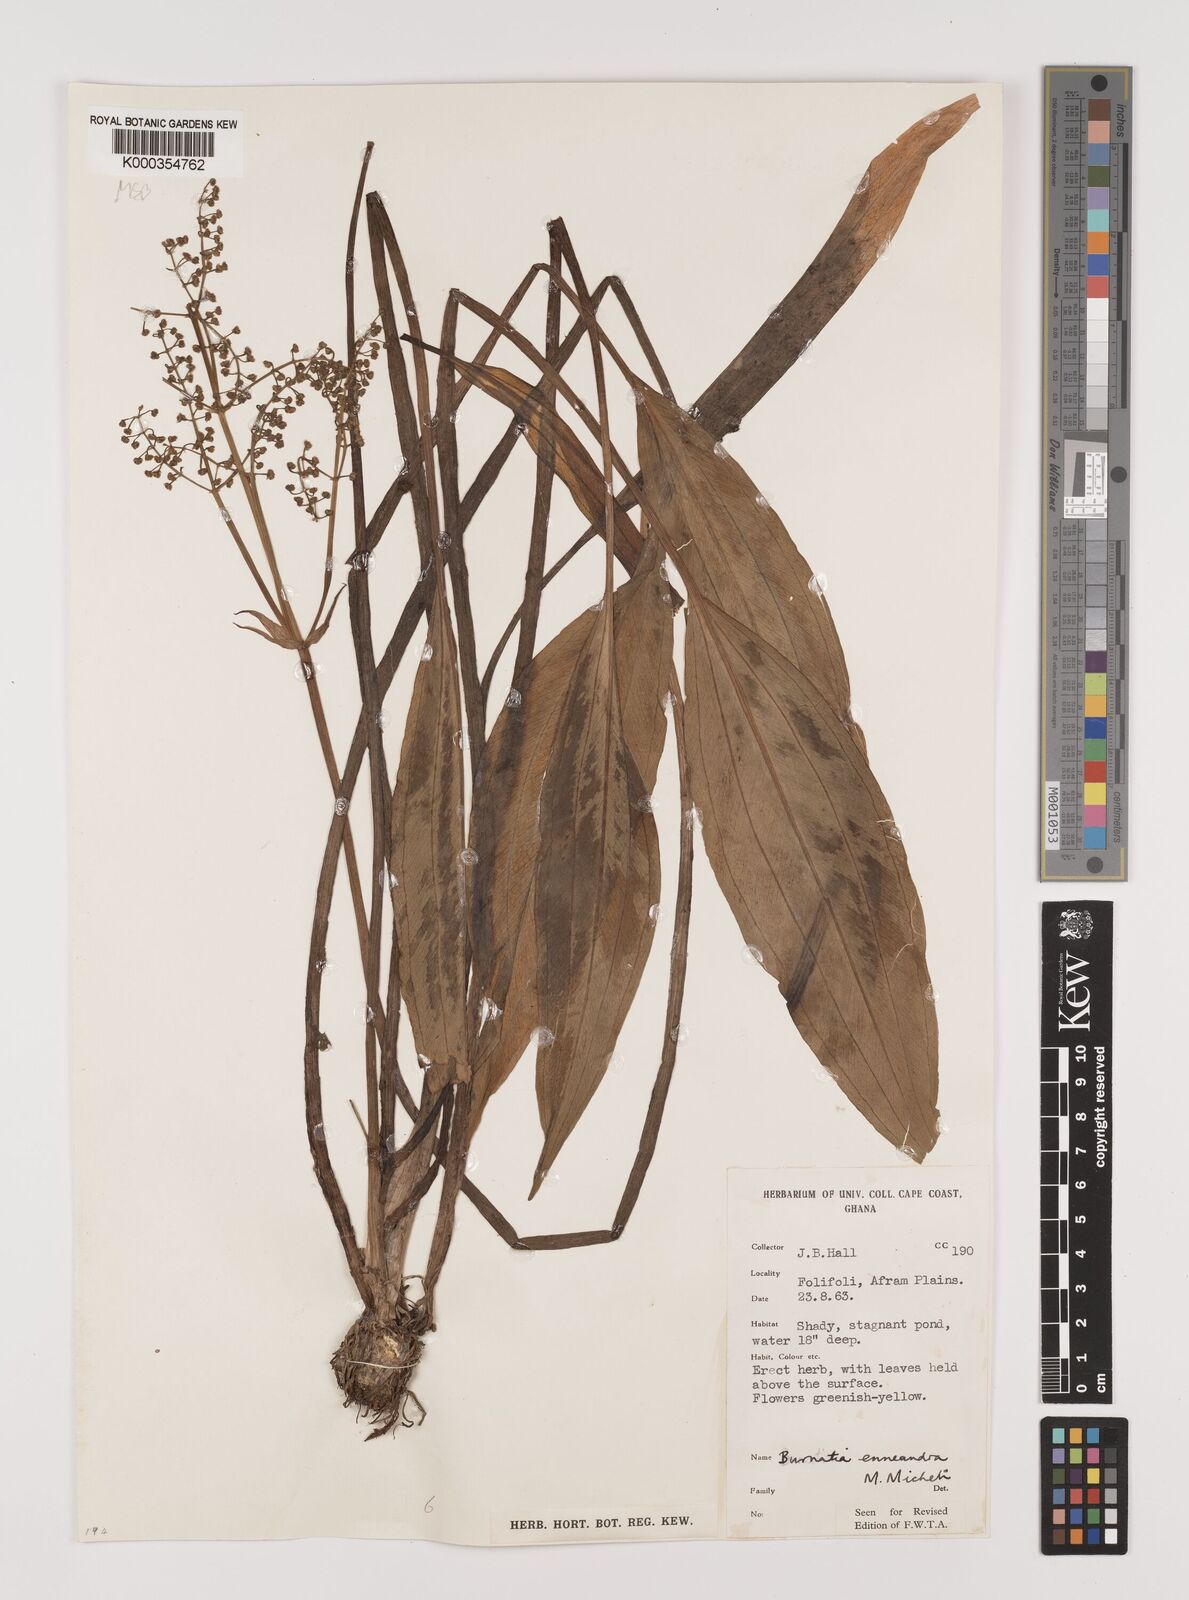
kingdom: Plantae
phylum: Tracheophyta
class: Liliopsida
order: Alismatales
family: Alismataceae
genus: Burnatia
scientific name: Burnatia enneandra
